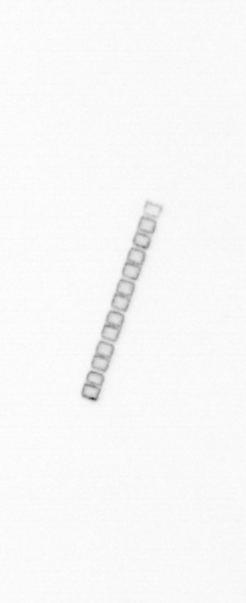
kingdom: Chromista
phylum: Ochrophyta
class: Bacillariophyceae
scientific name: Bacillariophyceae
